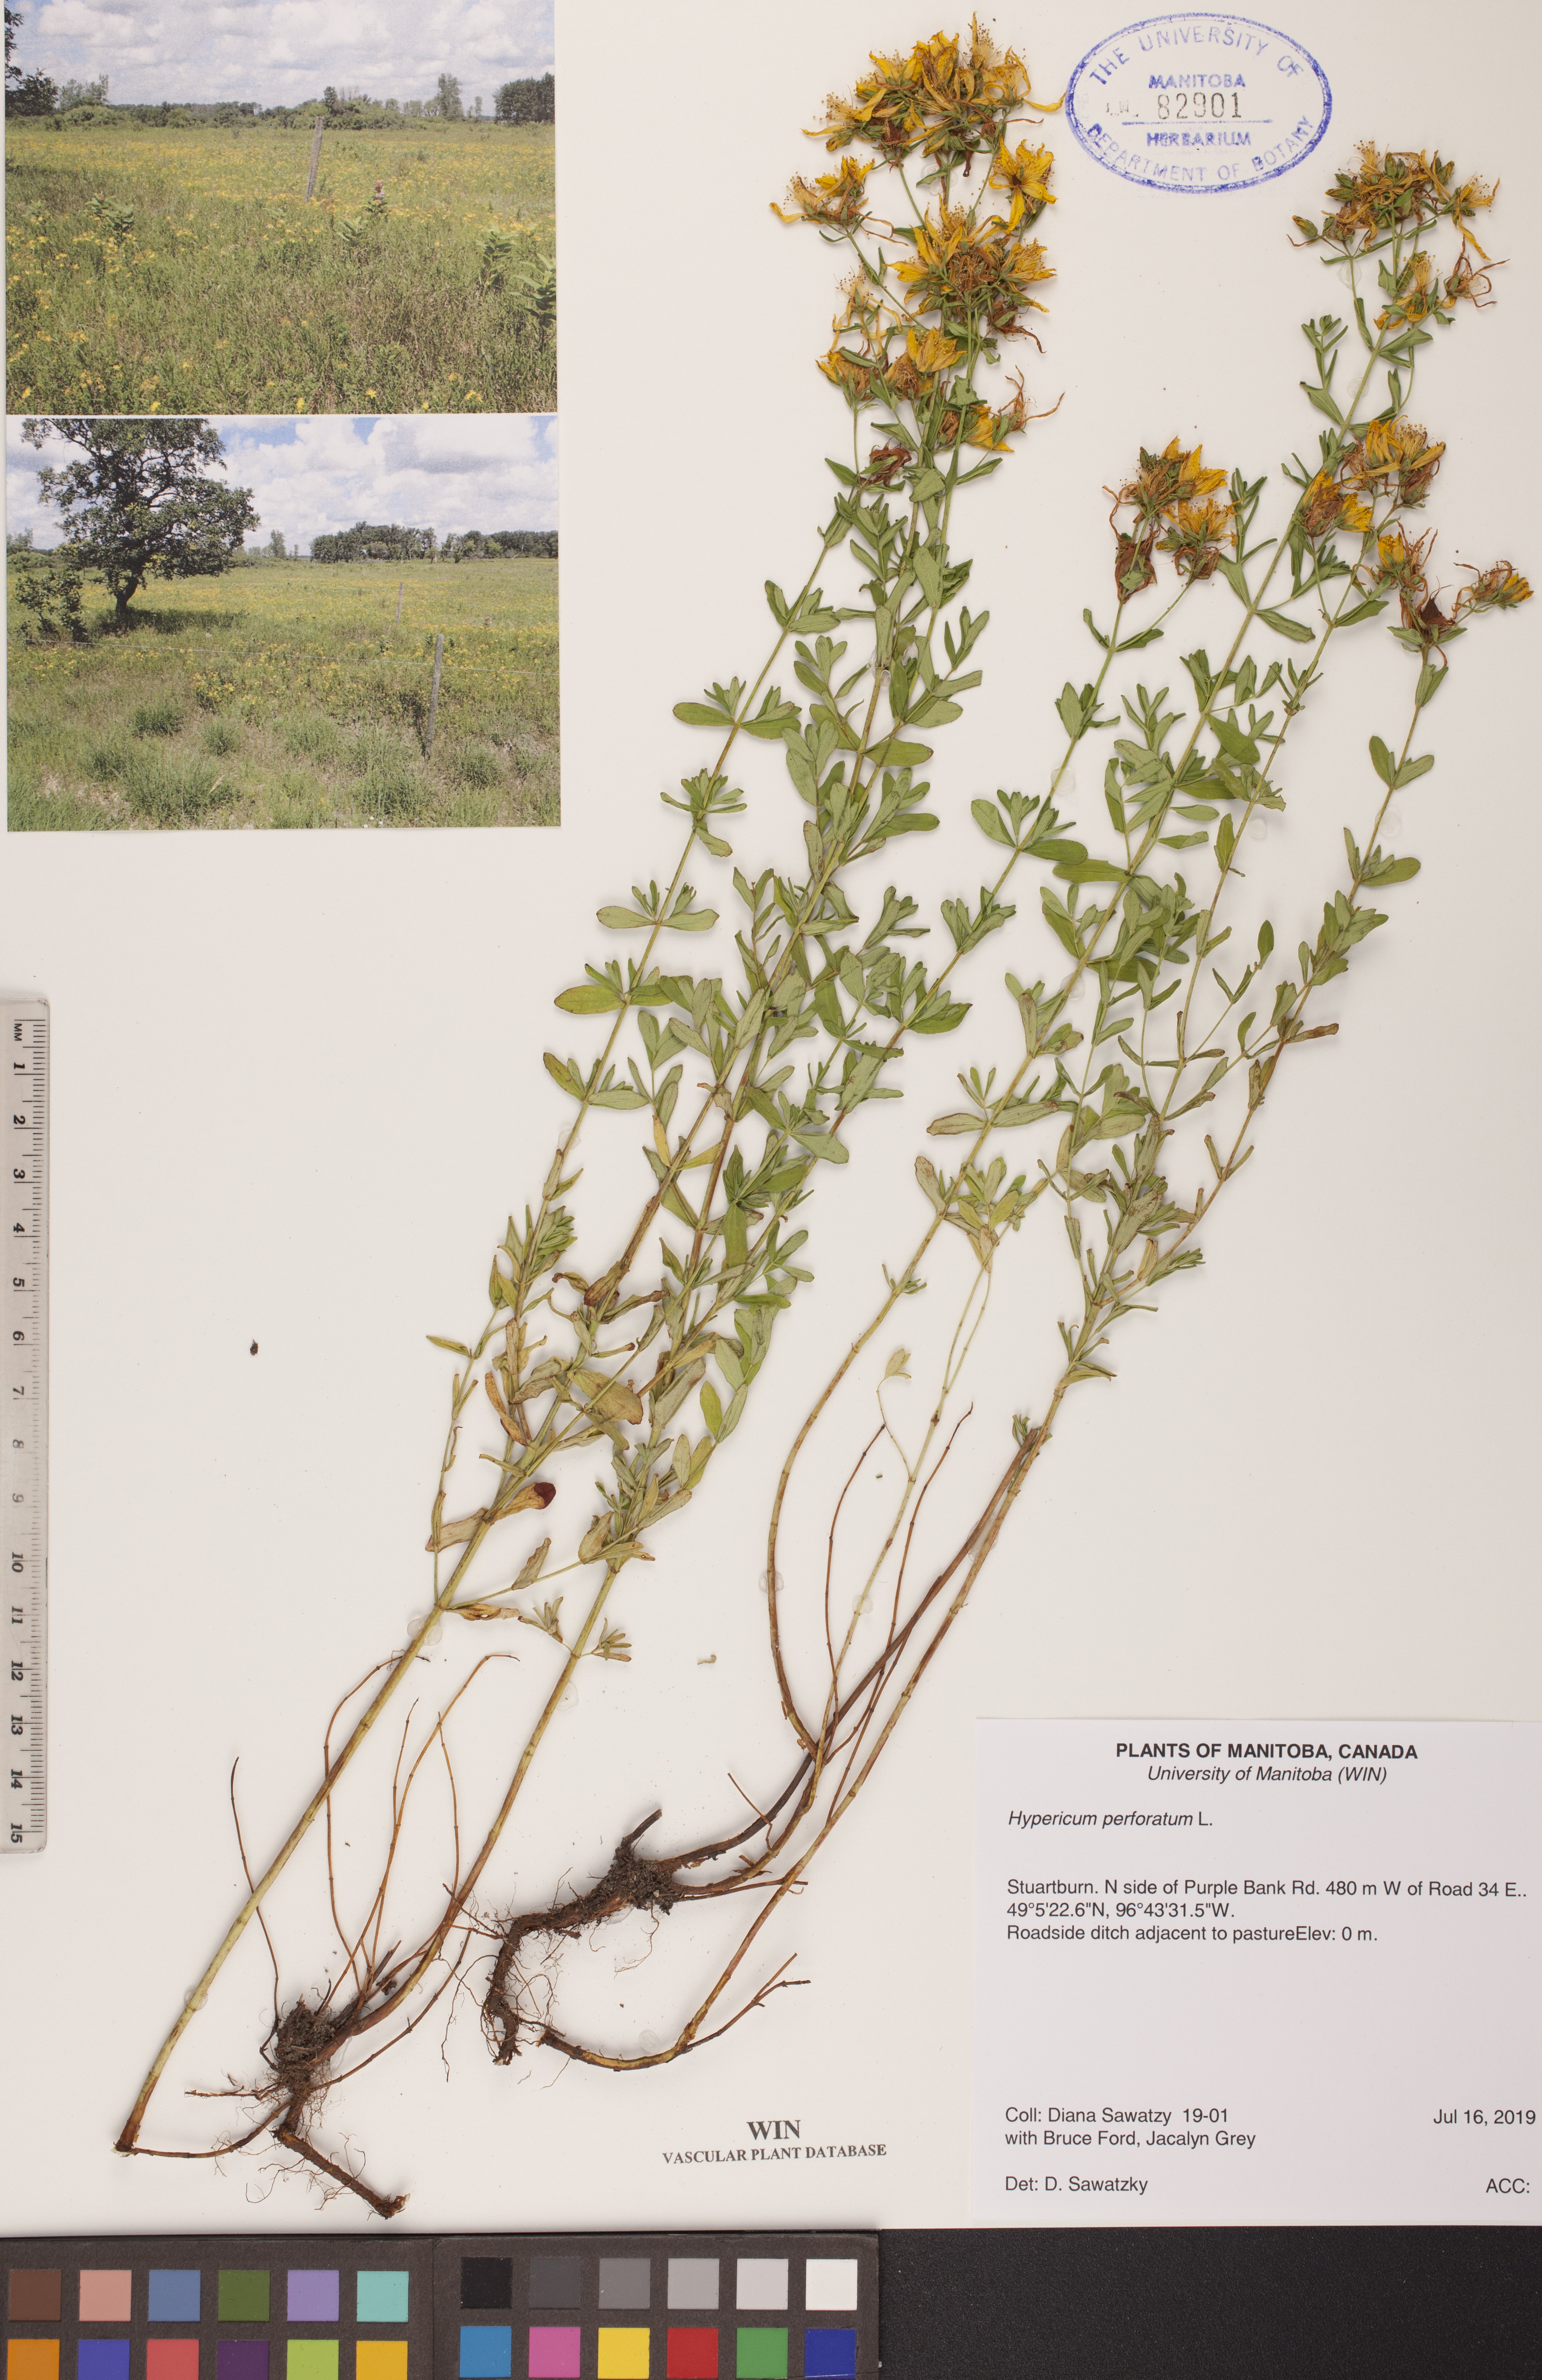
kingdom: Plantae
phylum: Tracheophyta
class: Magnoliopsida
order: Malpighiales
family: Hypericaceae
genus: Hypericum
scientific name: Hypericum perforatum
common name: Common st. johnswort
